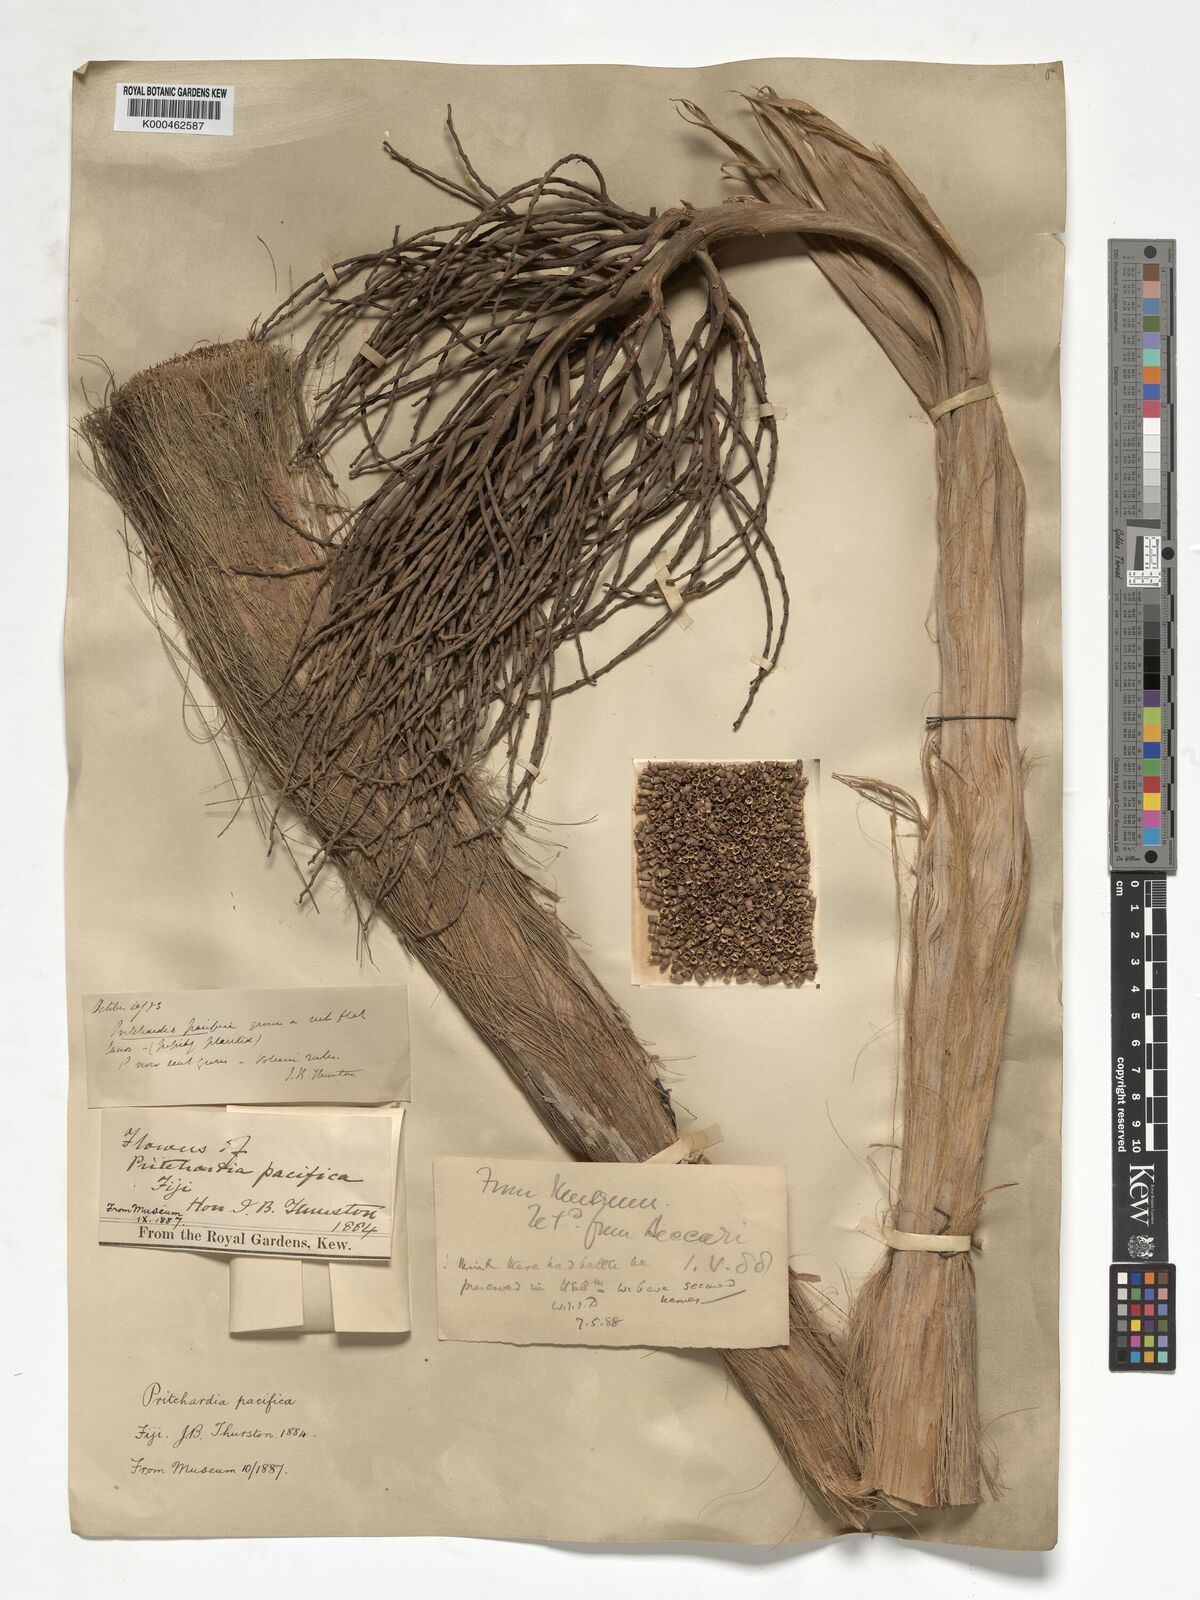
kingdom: Plantae
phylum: Tracheophyta
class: Liliopsida
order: Arecales
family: Arecaceae
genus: Pritchardia
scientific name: Pritchardia pacifica
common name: Fiji fan palm
